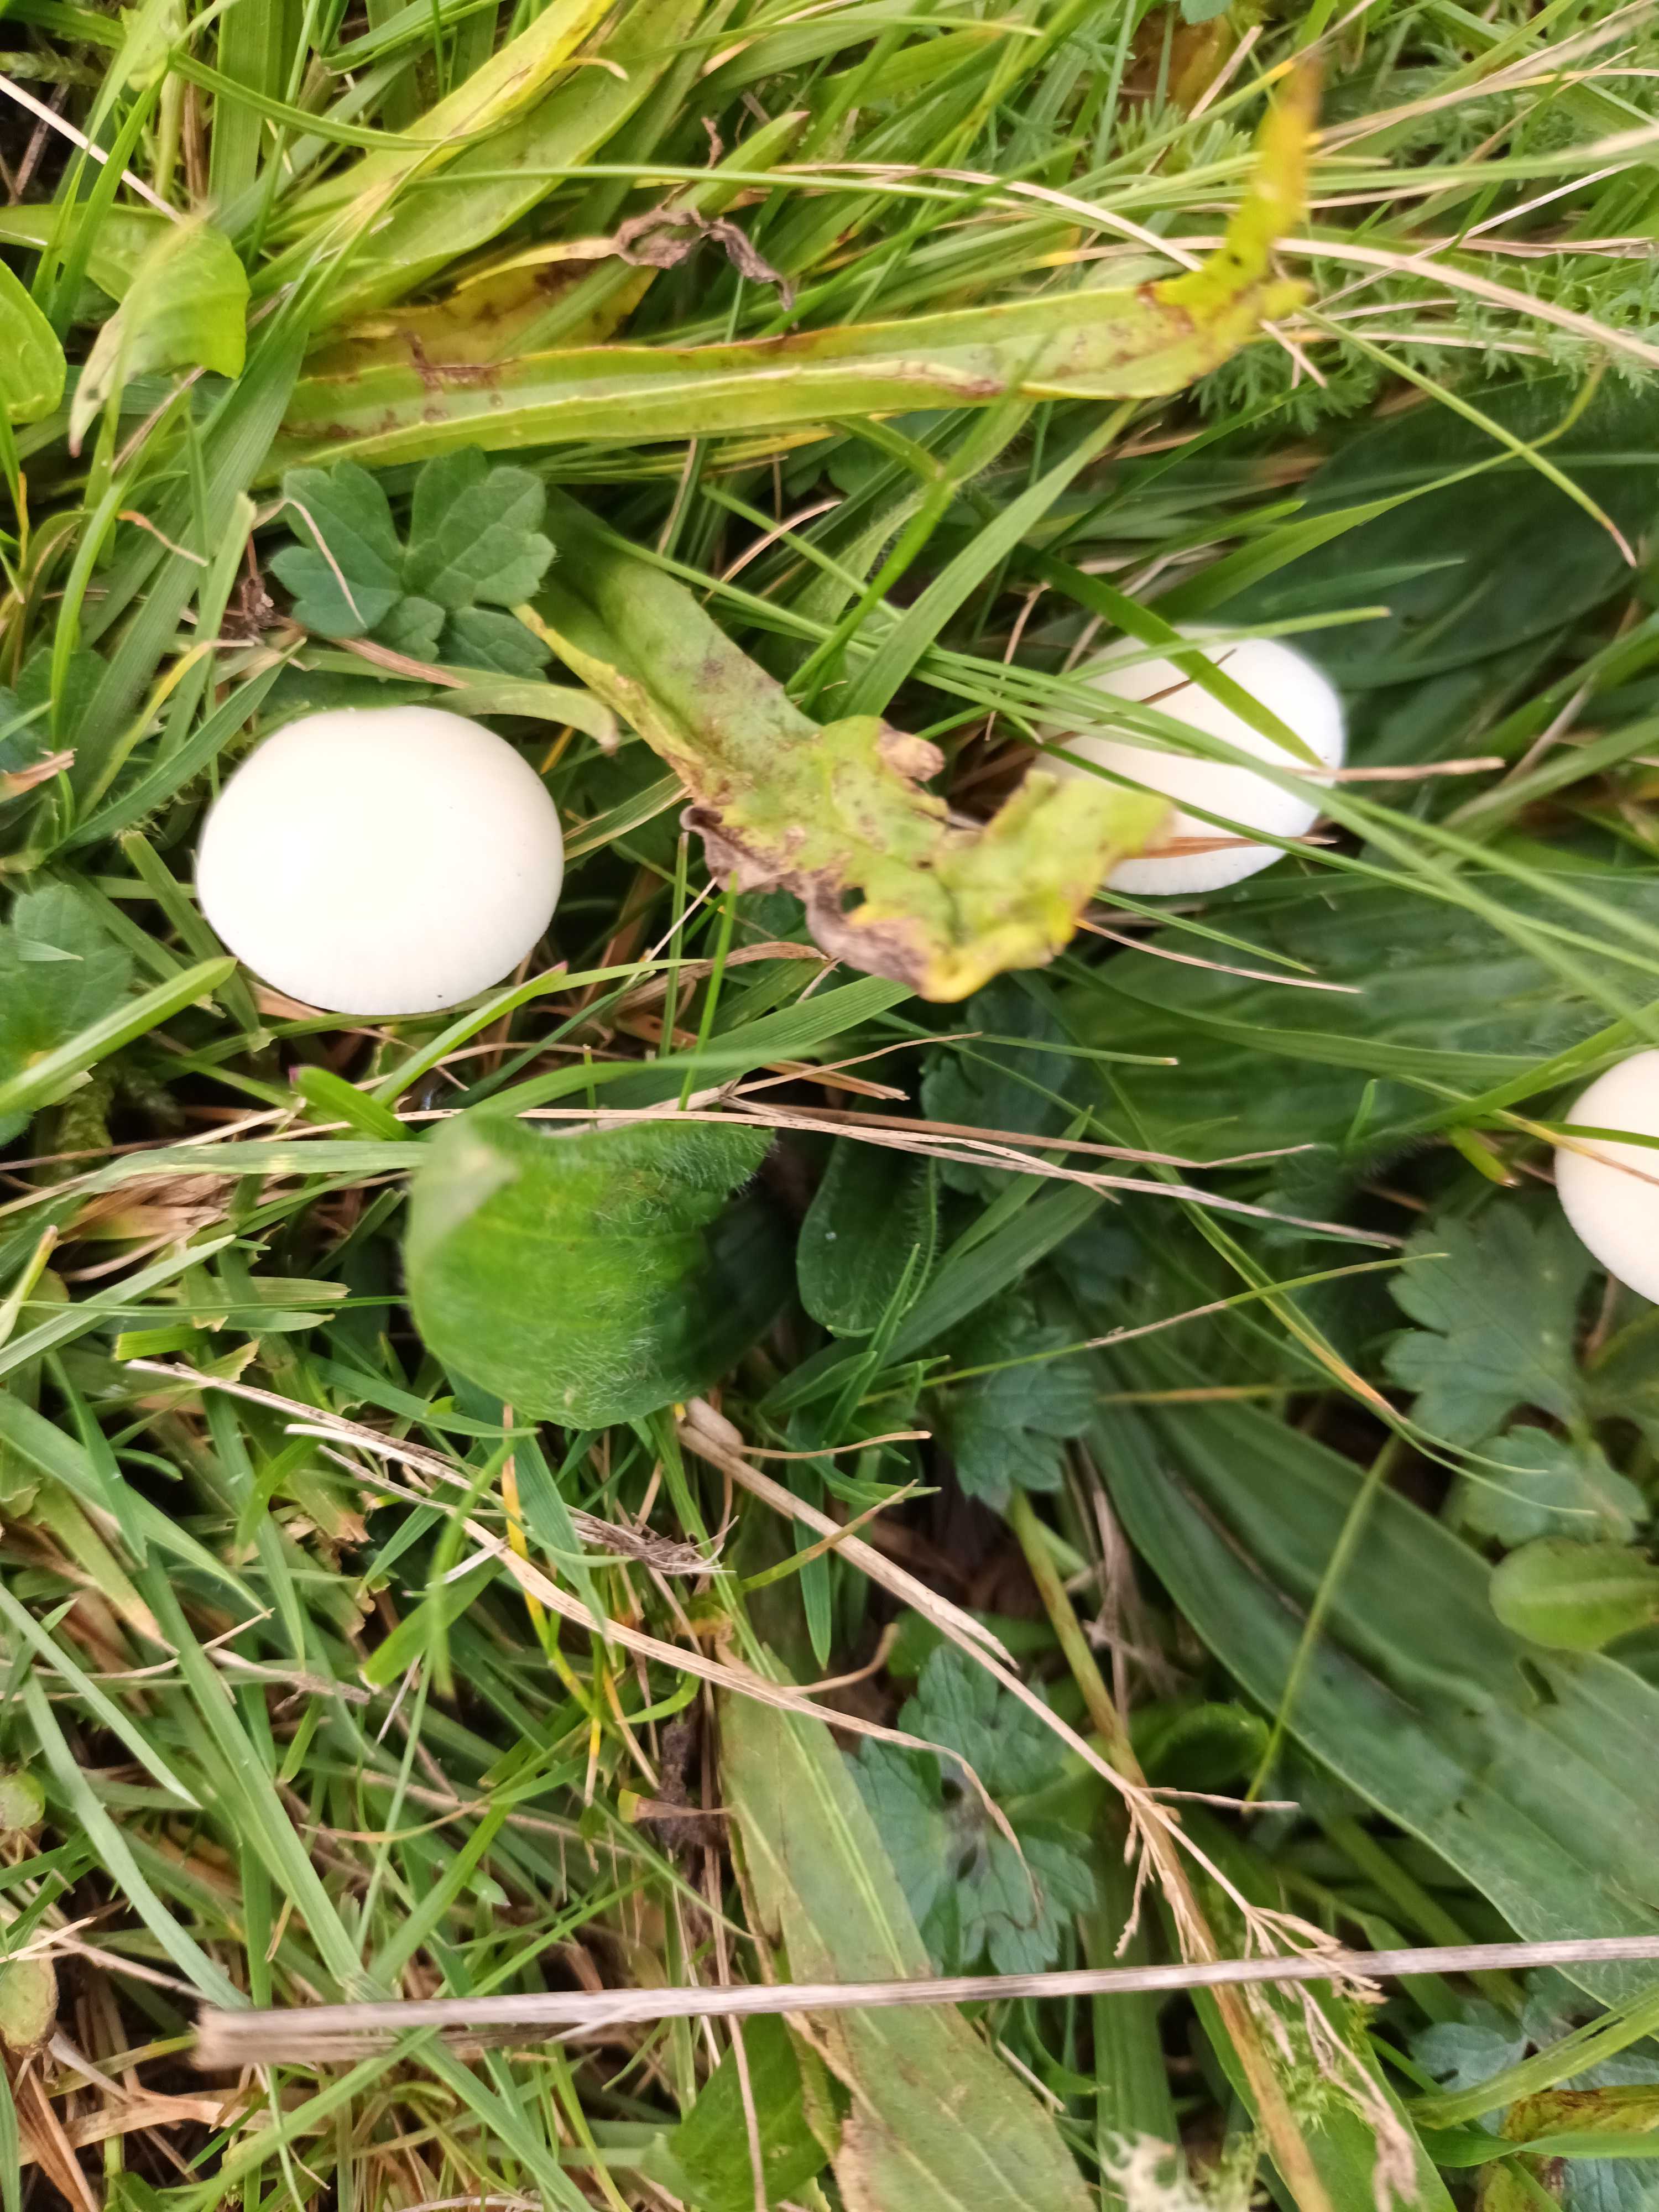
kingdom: Fungi
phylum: Basidiomycota
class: Agaricomycetes
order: Agaricales
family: Hygrophoraceae
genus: Cuphophyllus
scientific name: Cuphophyllus
